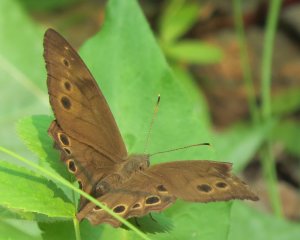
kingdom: Animalia
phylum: Arthropoda
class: Insecta
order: Lepidoptera
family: Nymphalidae
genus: Lethe
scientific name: Lethe anthedon
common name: Northern Pearly-Eye
